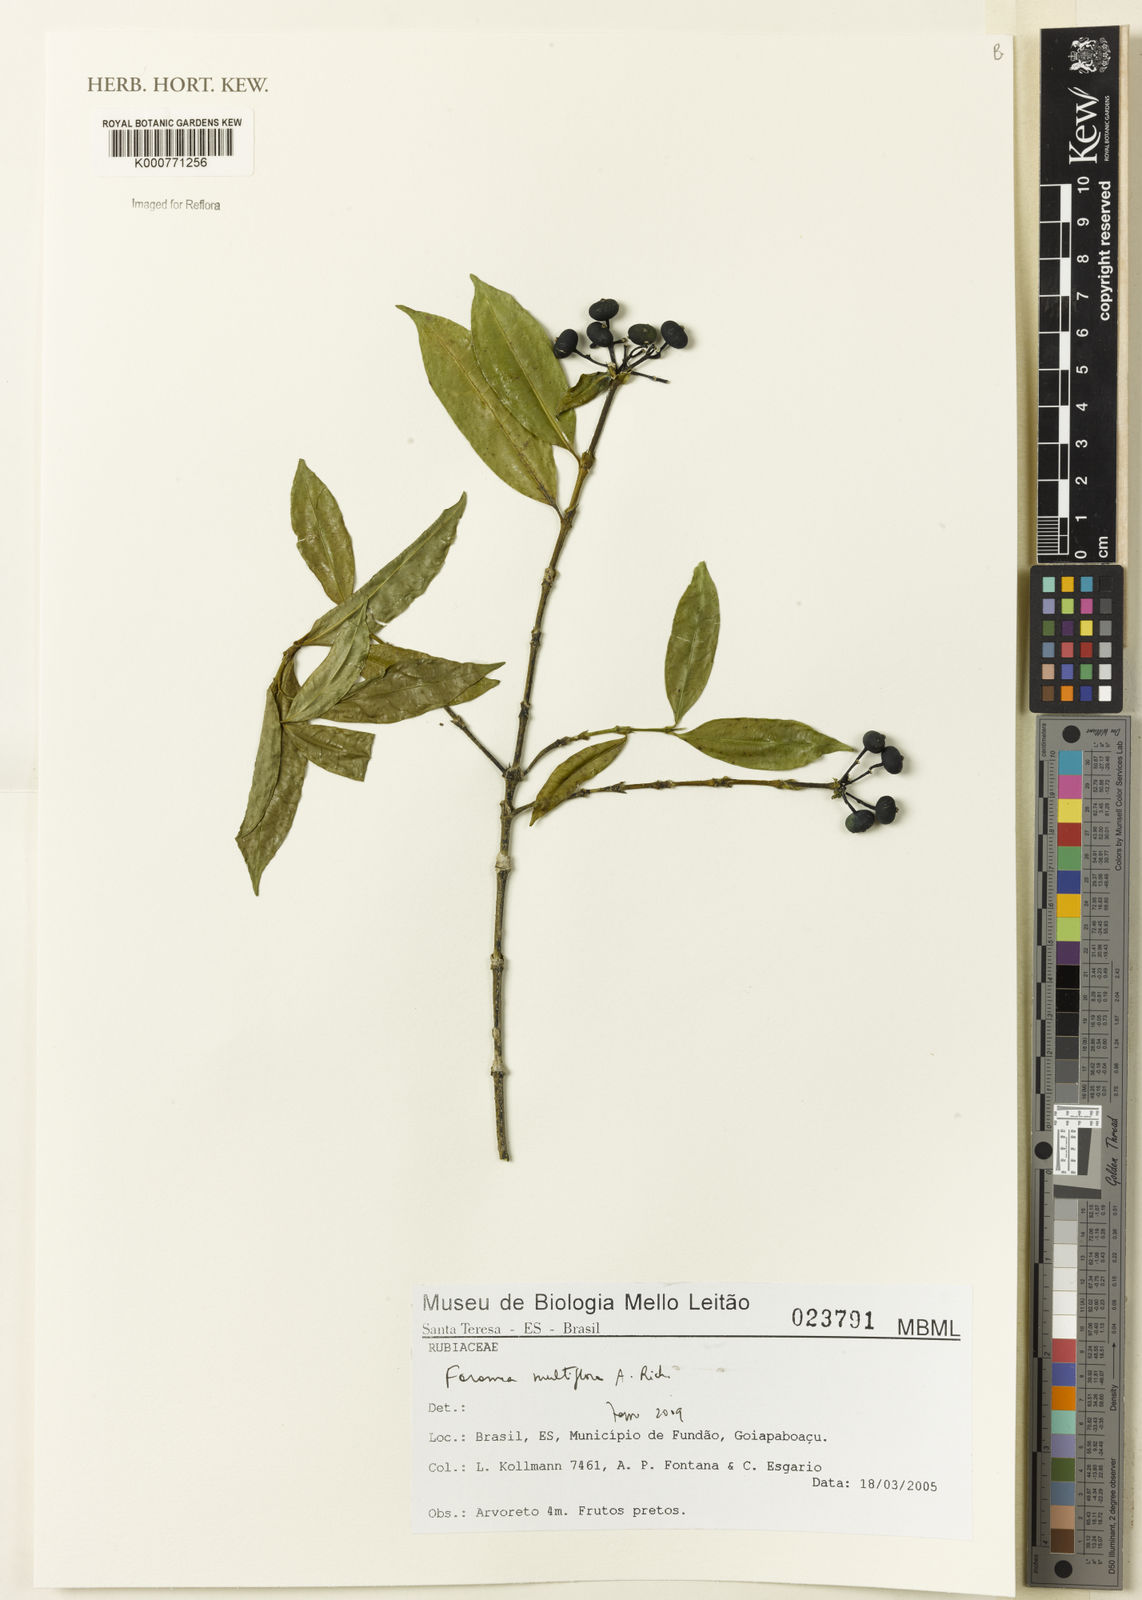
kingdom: Plantae
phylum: Tracheophyta
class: Magnoliopsida
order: Gentianales
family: Rubiaceae
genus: Faramea
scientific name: Faramea multiflora
